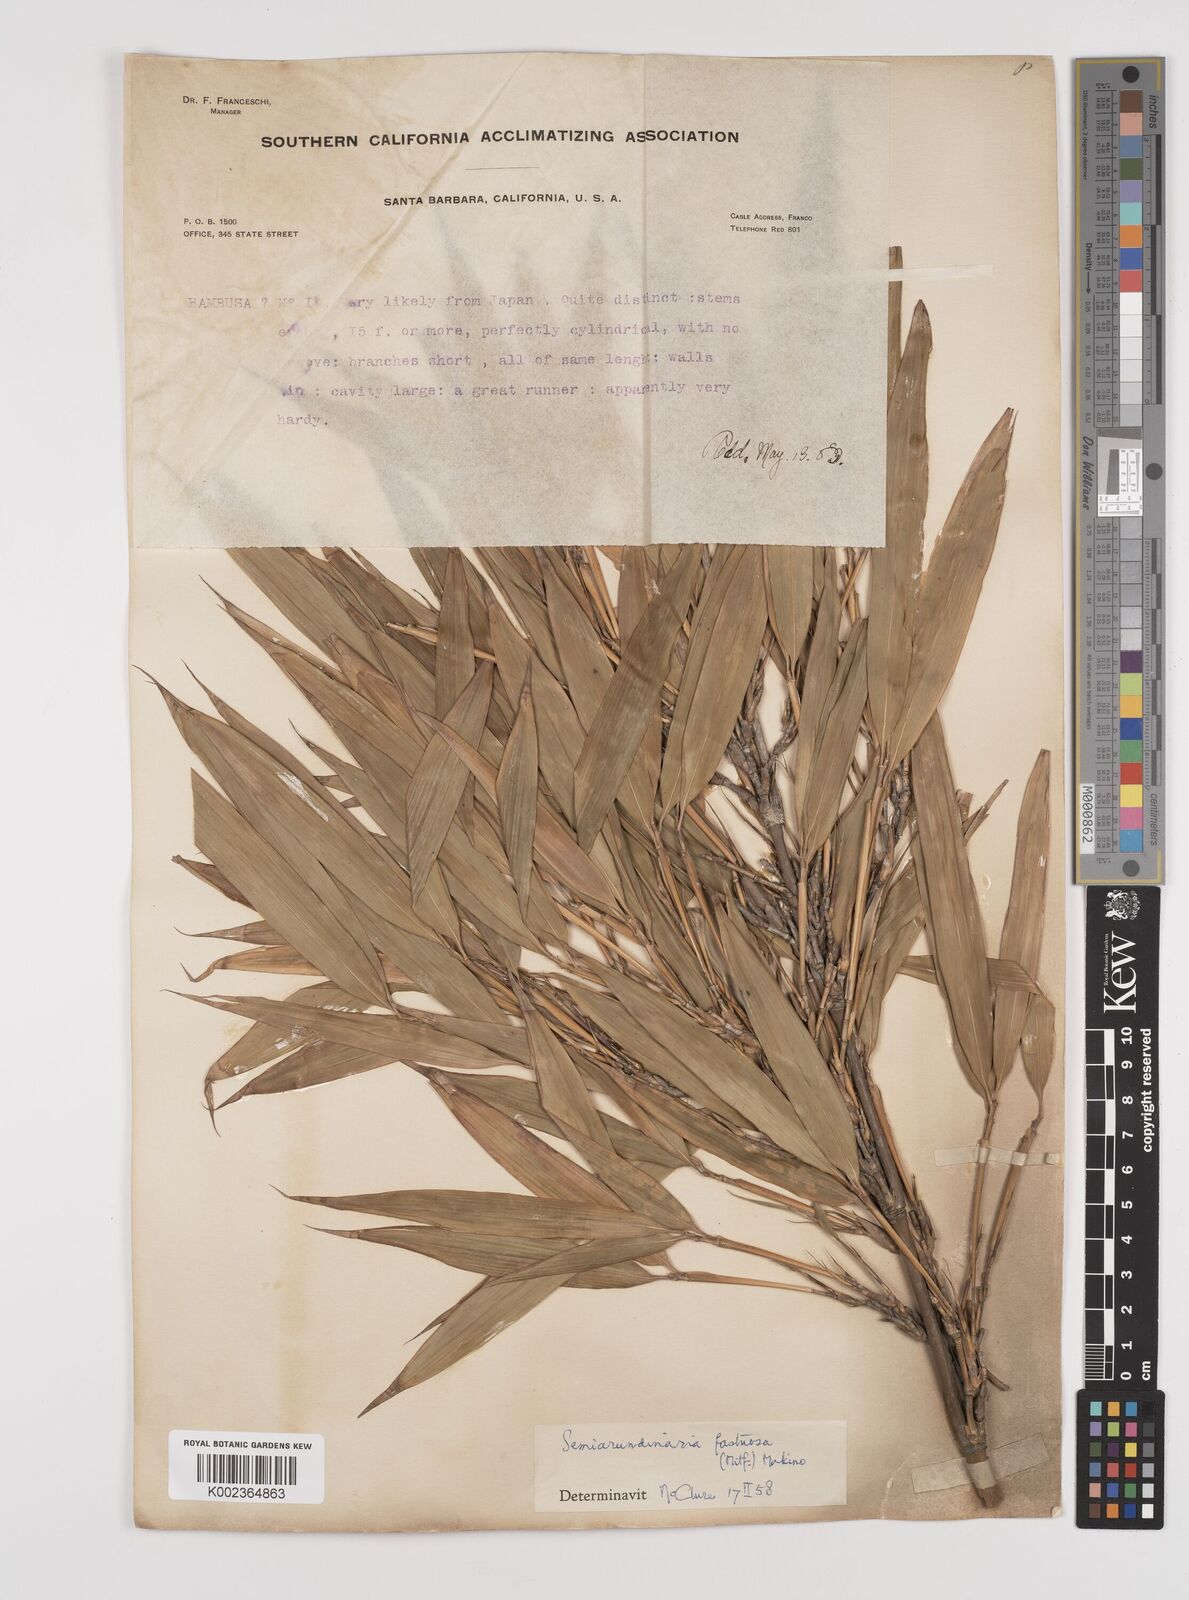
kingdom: Plantae
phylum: Tracheophyta
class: Liliopsida
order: Poales
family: Poaceae
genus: Semiarundinaria
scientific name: Semiarundinaria fastuosa
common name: Narihira bamboo
